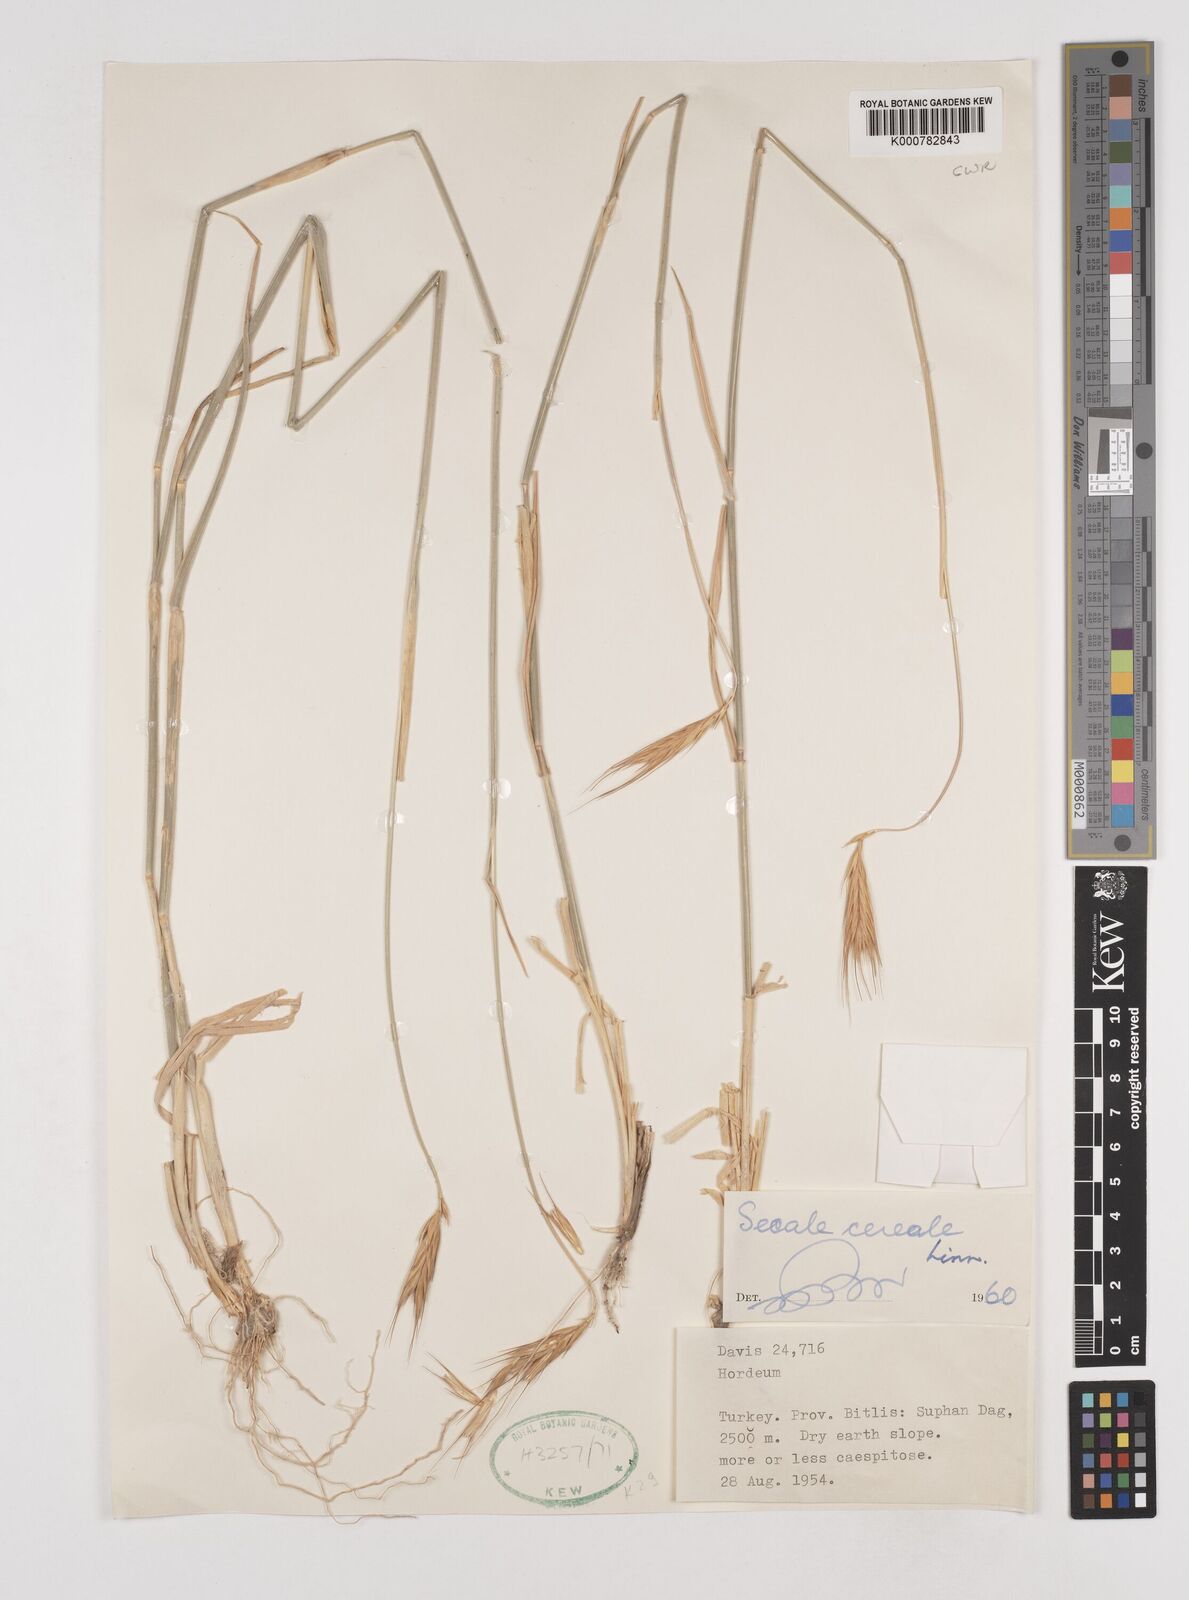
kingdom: Plantae
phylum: Tracheophyta
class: Liliopsida
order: Poales
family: Poaceae
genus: Secale
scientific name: Secale cereale
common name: Rye
